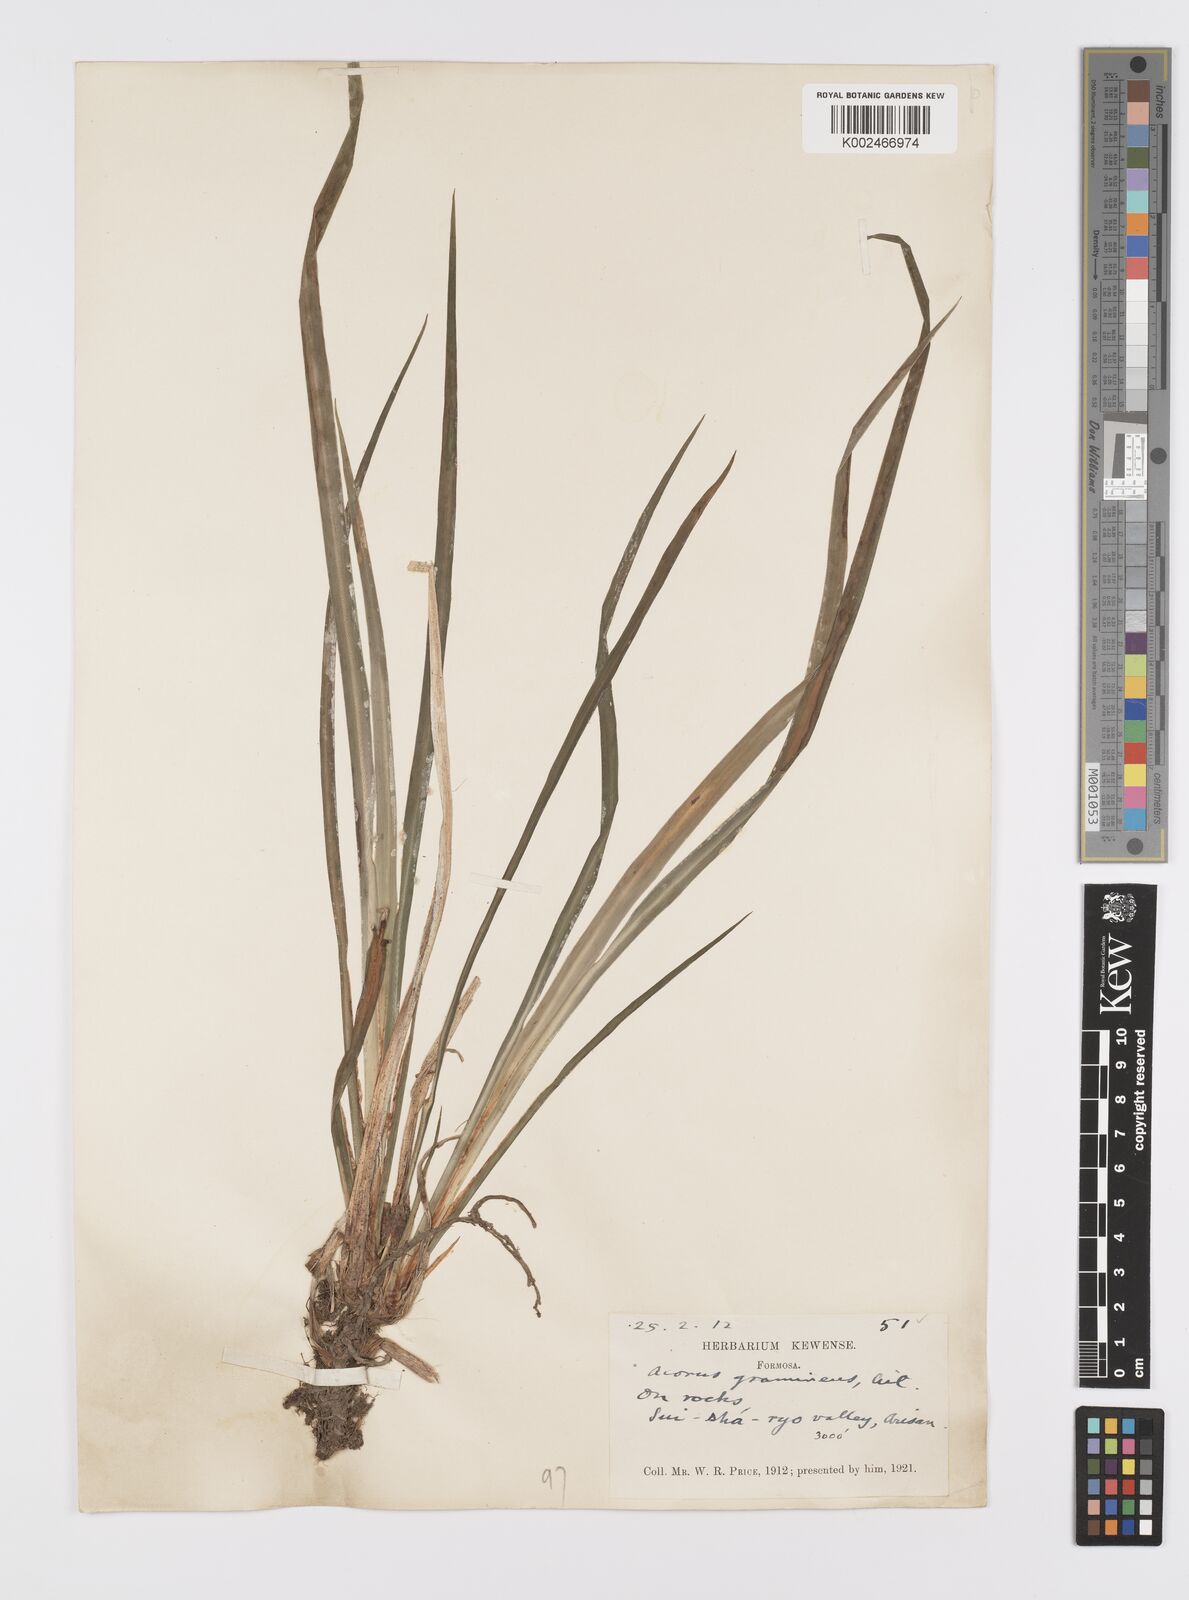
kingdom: Plantae
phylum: Tracheophyta
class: Liliopsida
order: Acorales
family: Acoraceae
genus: Acorus
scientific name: Acorus gramineus
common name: Slender sweet-flag
